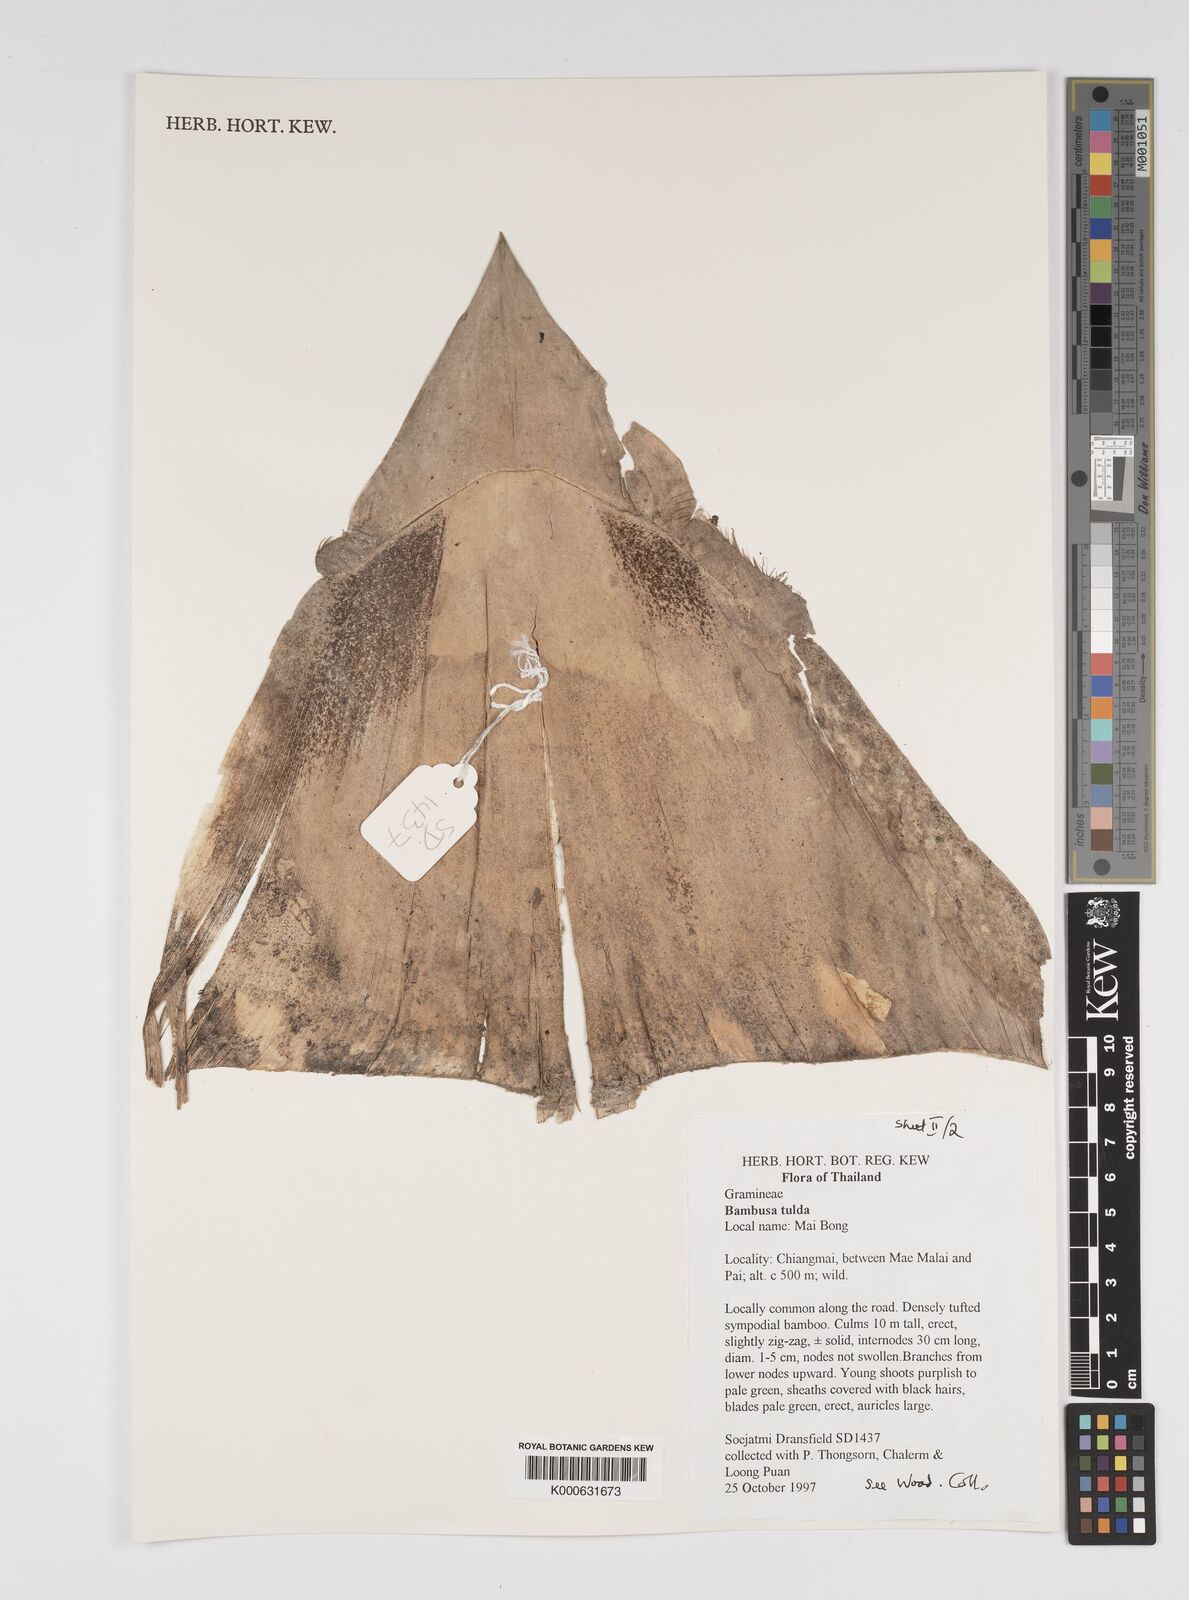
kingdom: Plantae
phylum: Tracheophyta
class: Liliopsida
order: Poales
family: Poaceae
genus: Bambusa
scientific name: Bambusa
